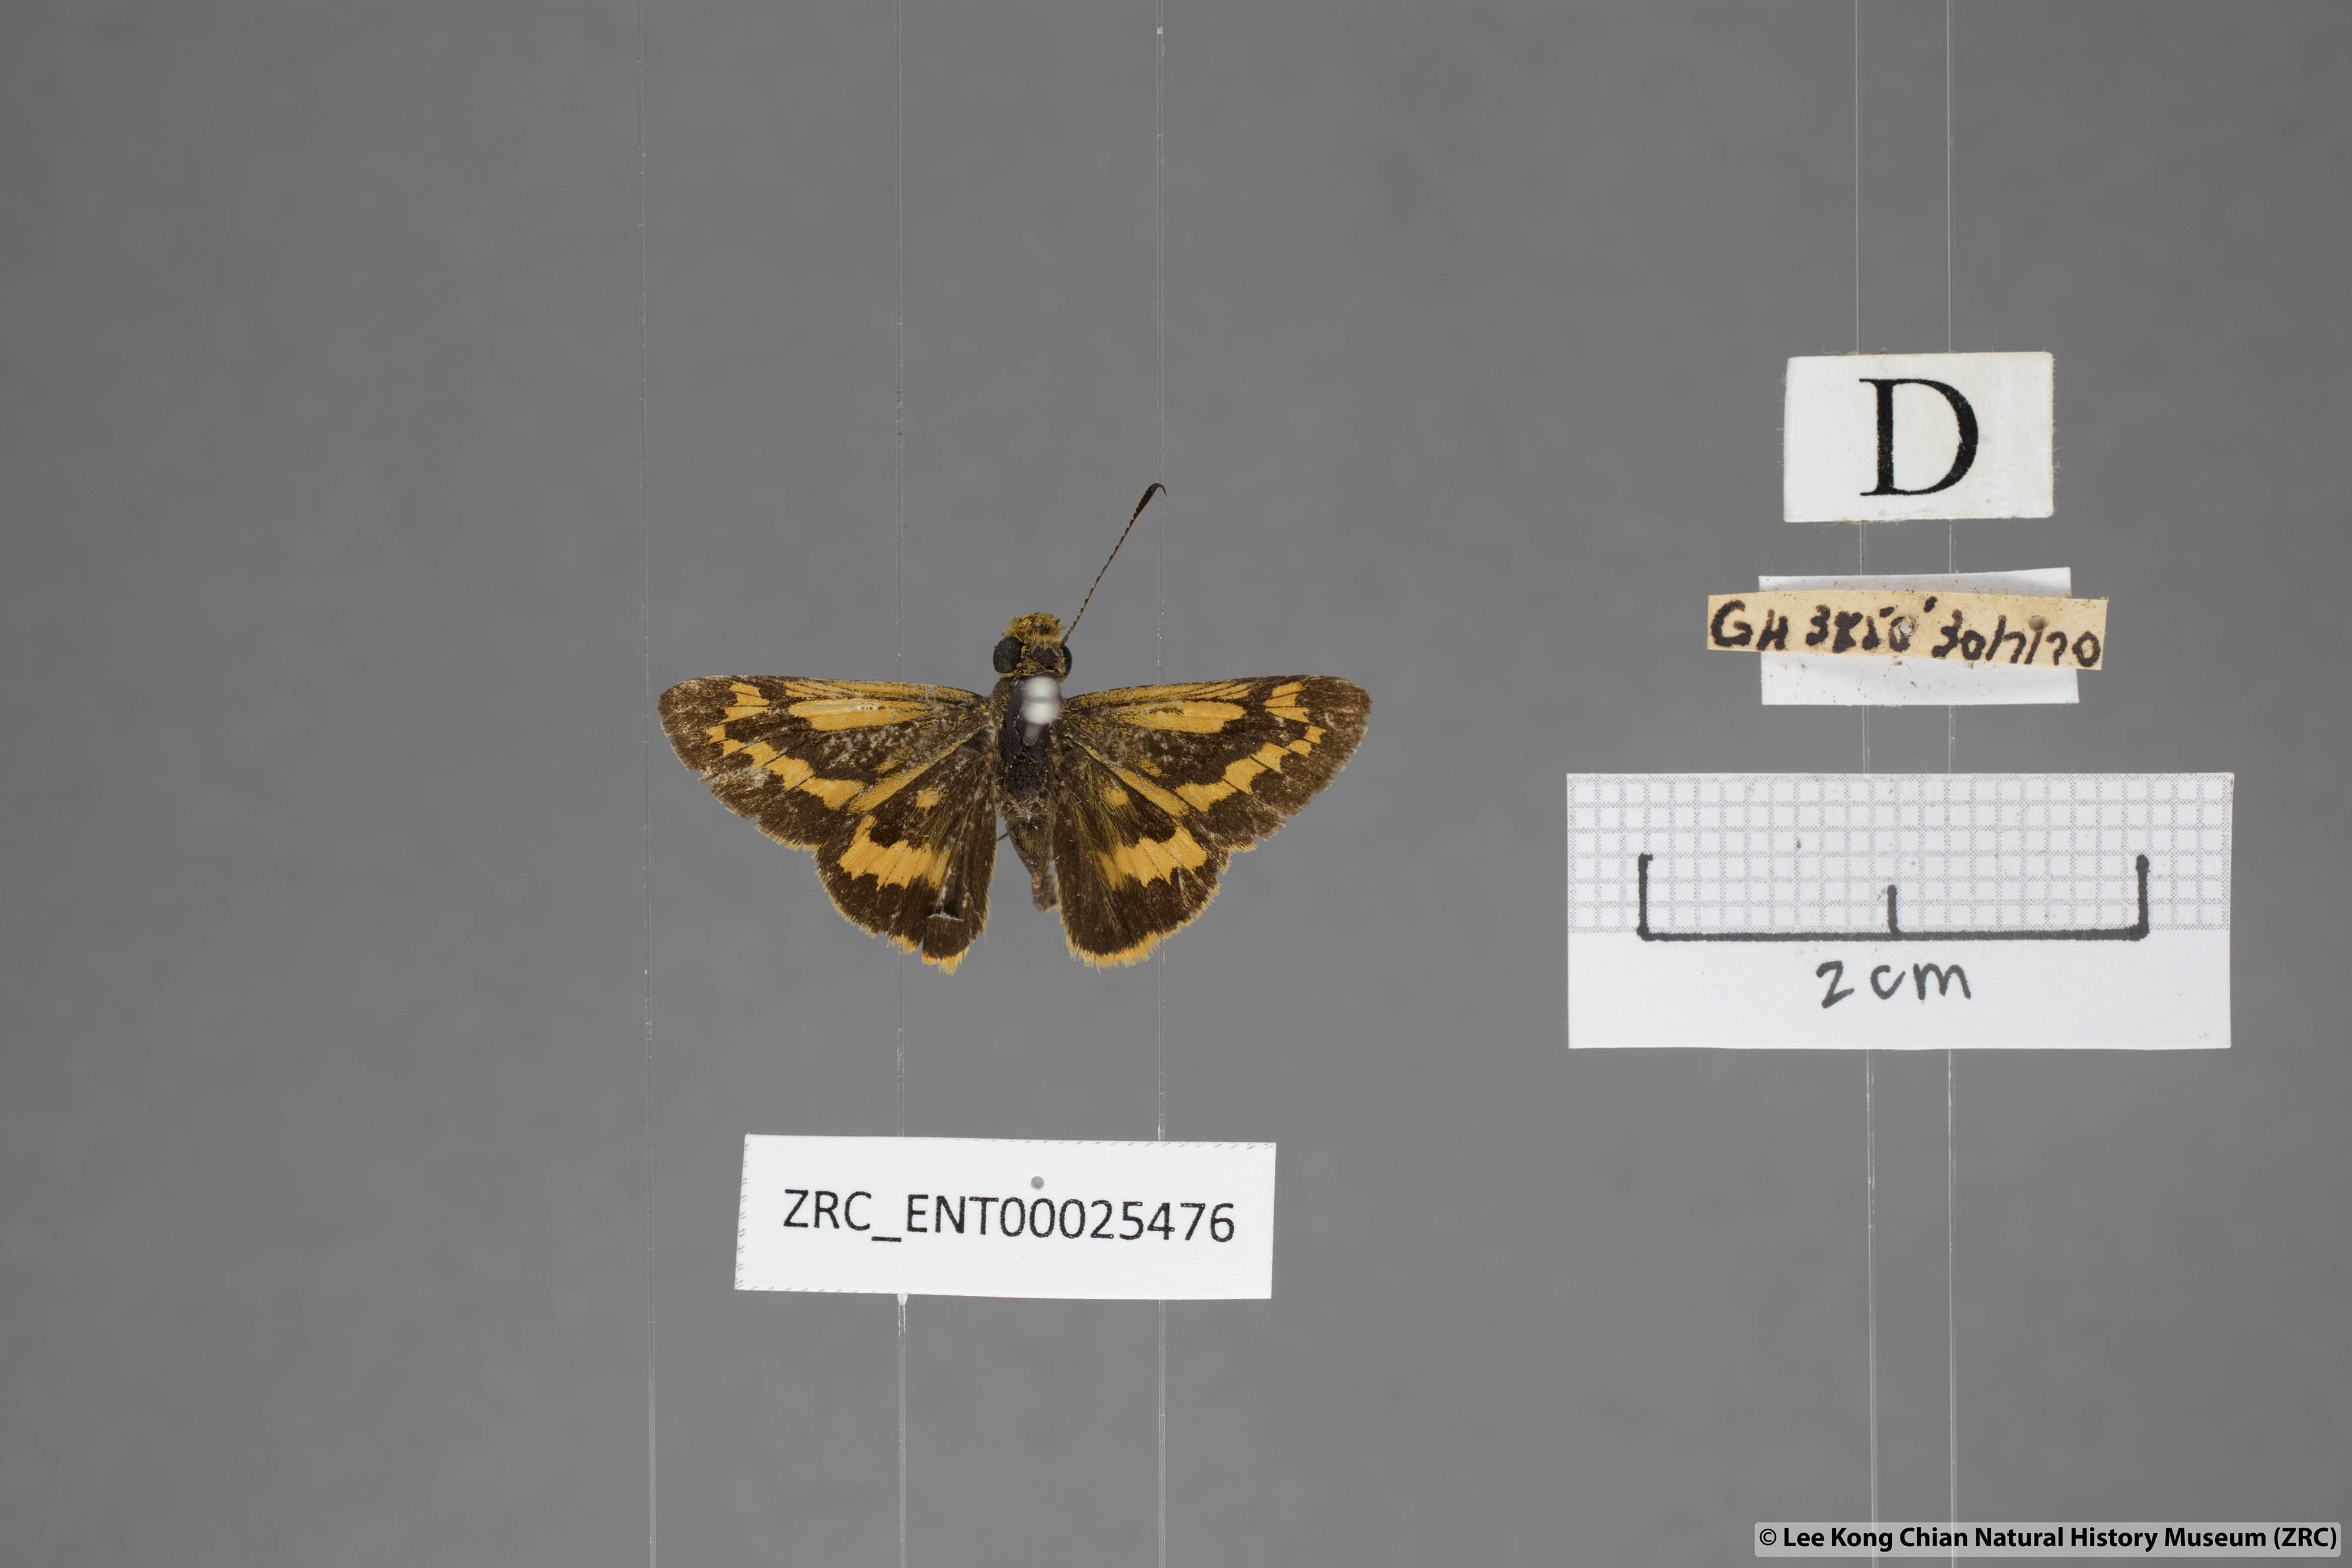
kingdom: Animalia
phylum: Arthropoda
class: Insecta
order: Lepidoptera
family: Hesperiidae
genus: Potanthus
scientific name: Potanthus rectifasciata
